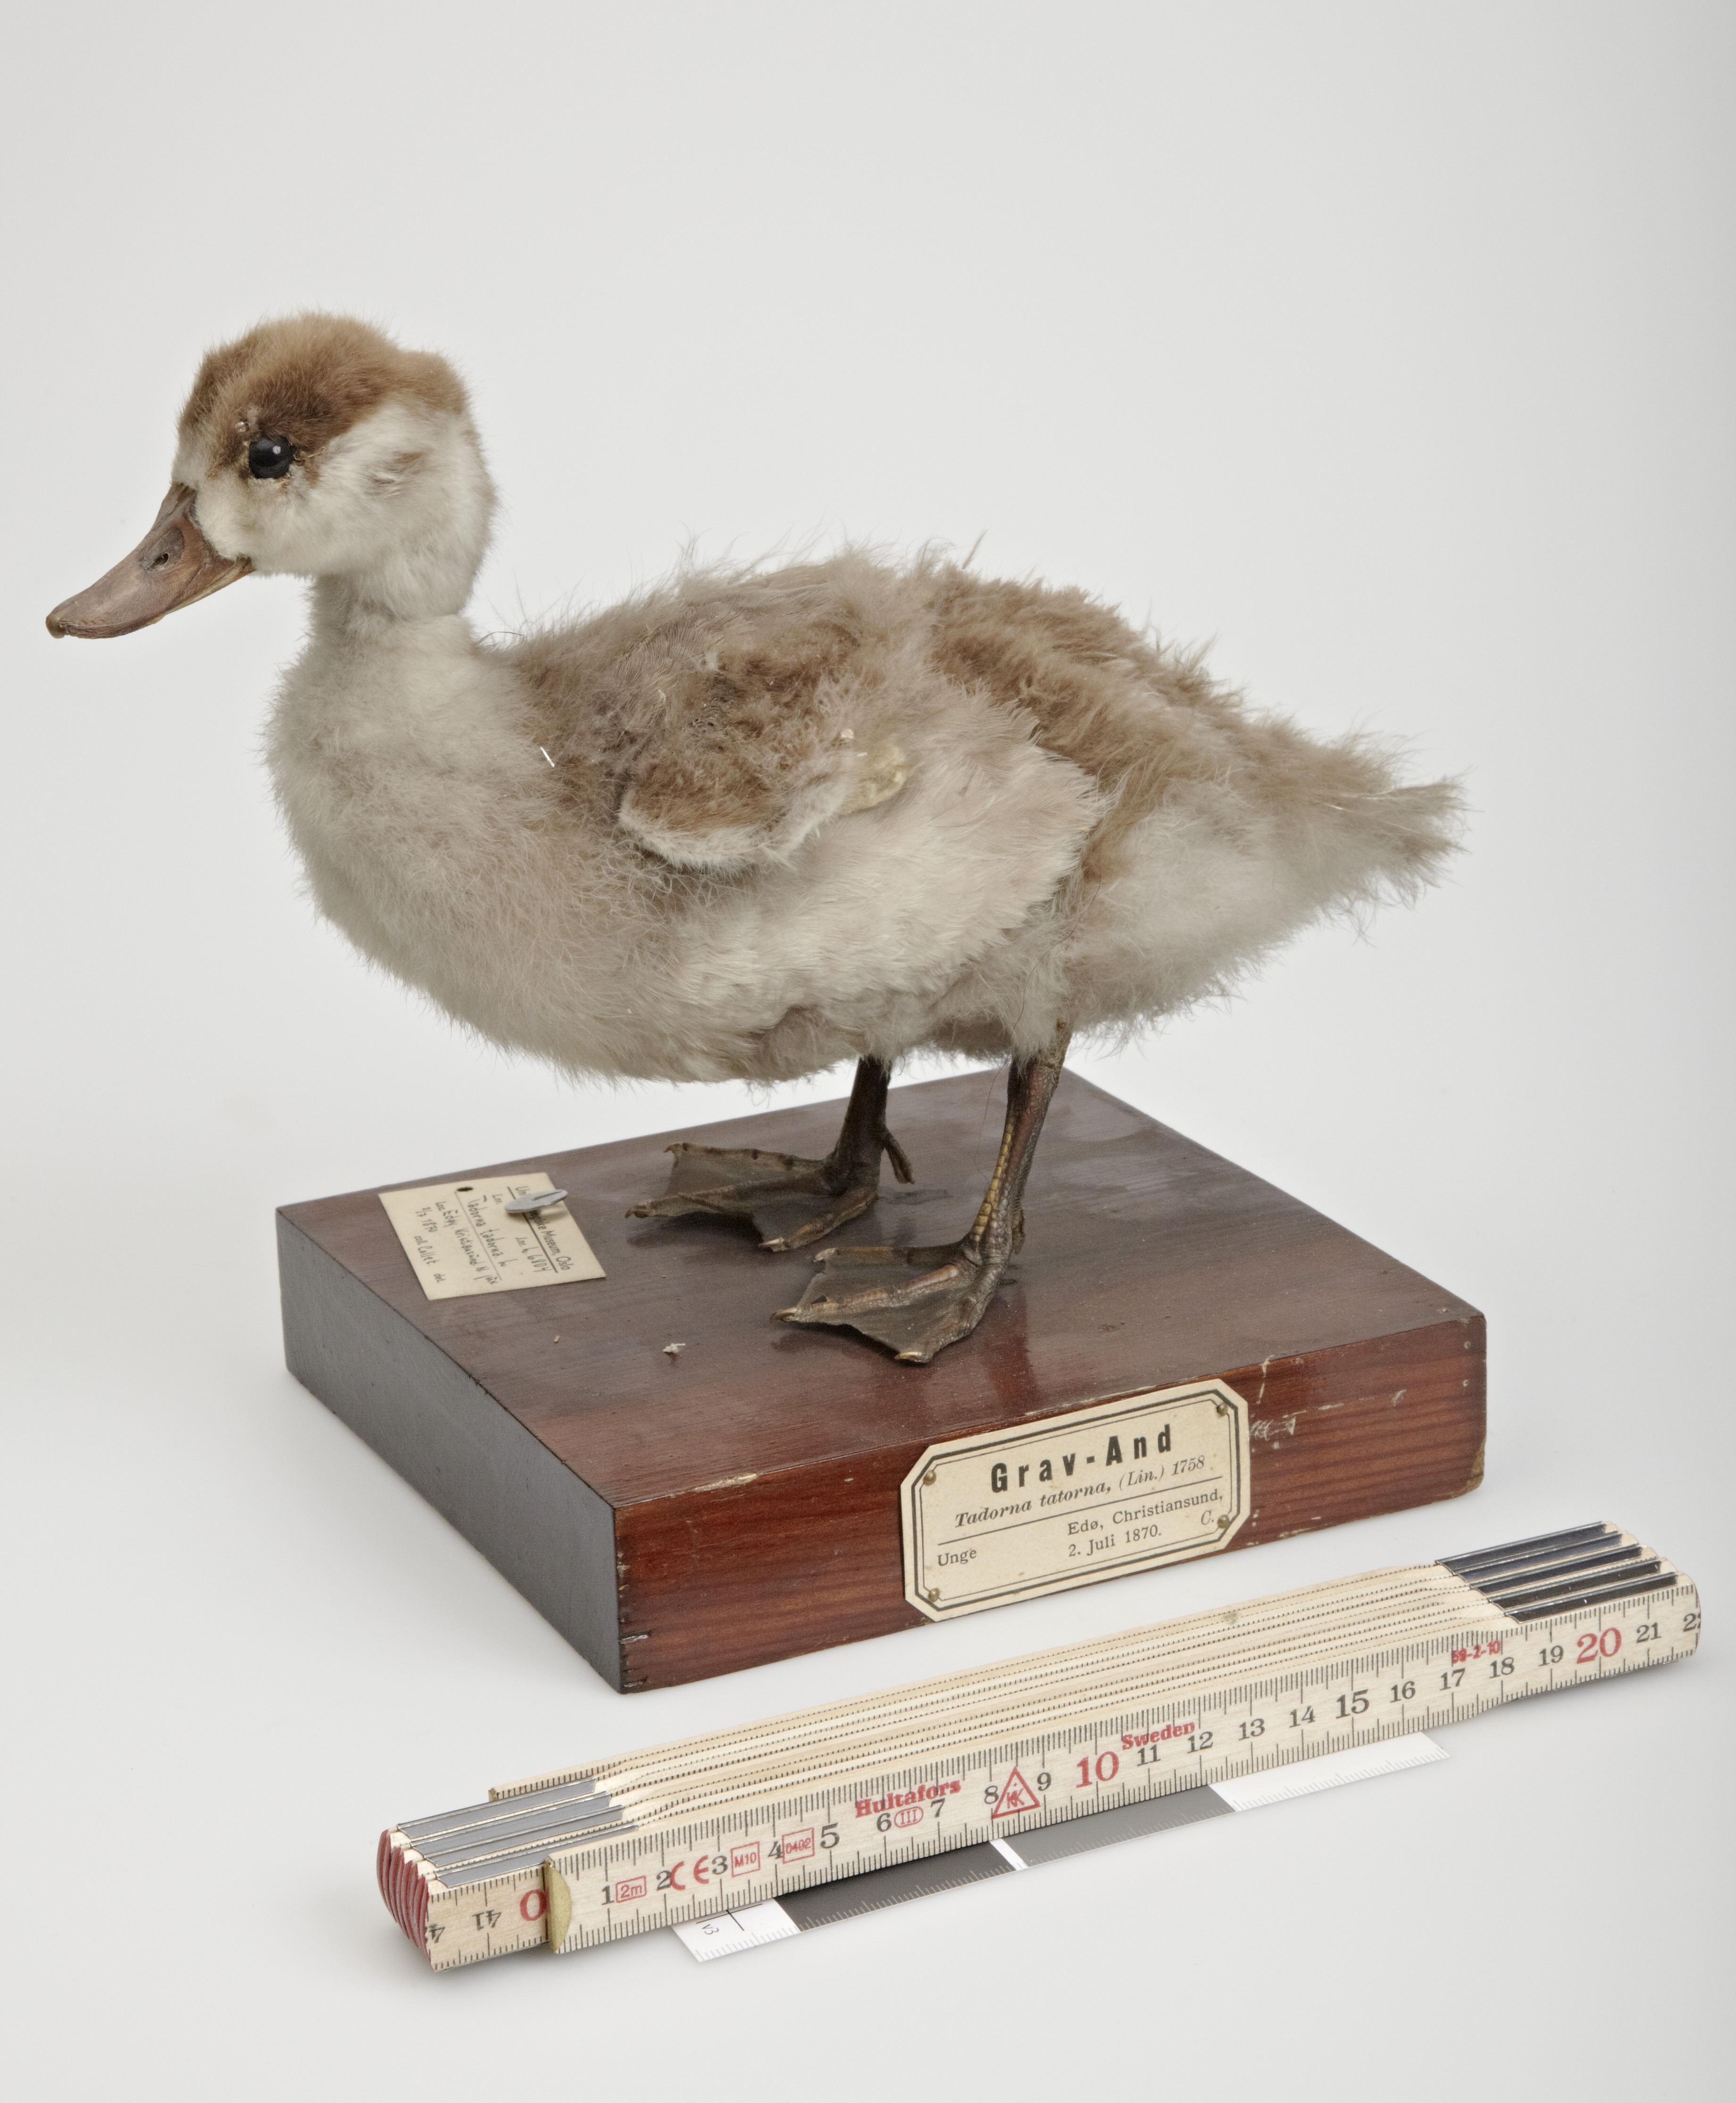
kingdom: Animalia
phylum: Chordata
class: Aves
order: Anseriformes
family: Anatidae
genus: Tadorna
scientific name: Tadorna tadorna
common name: Common shelduck
